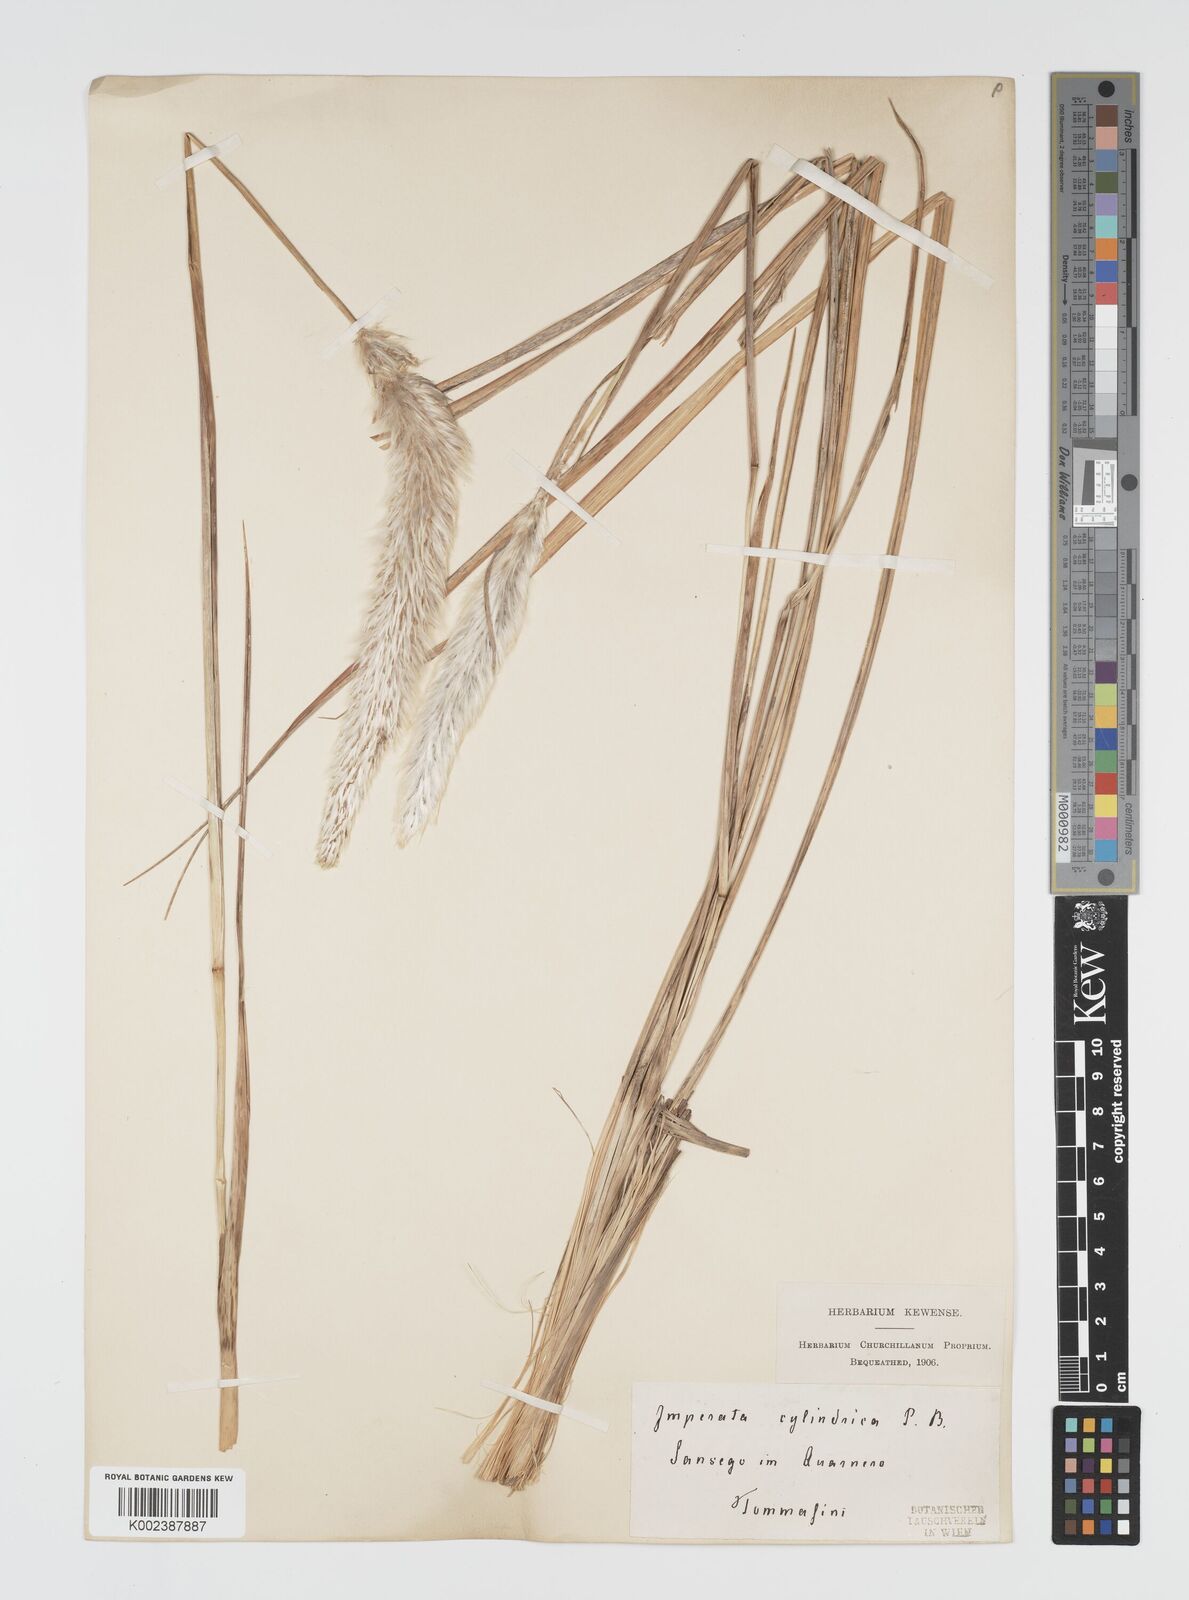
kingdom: Plantae
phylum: Tracheophyta
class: Liliopsida
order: Poales
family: Poaceae
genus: Imperata
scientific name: Imperata cylindrica
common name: Cogongrass
